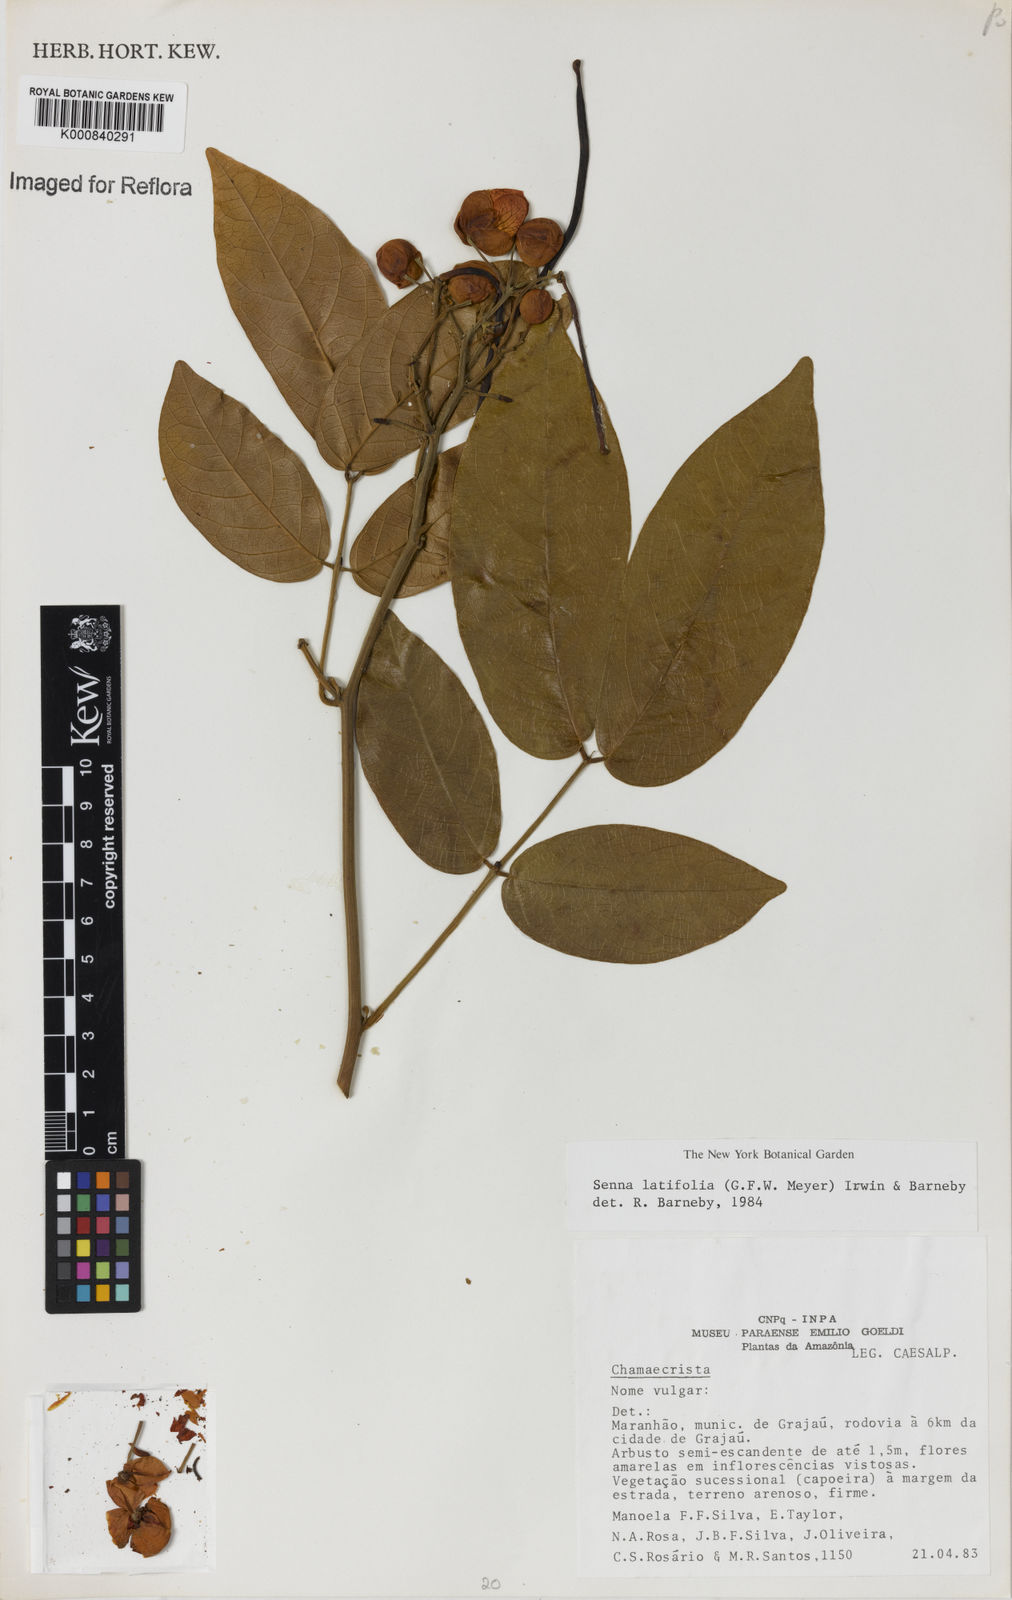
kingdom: Plantae
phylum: Tracheophyta
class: Magnoliopsida
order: Fabales
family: Fabaceae
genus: Senna
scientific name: Senna latifolia
